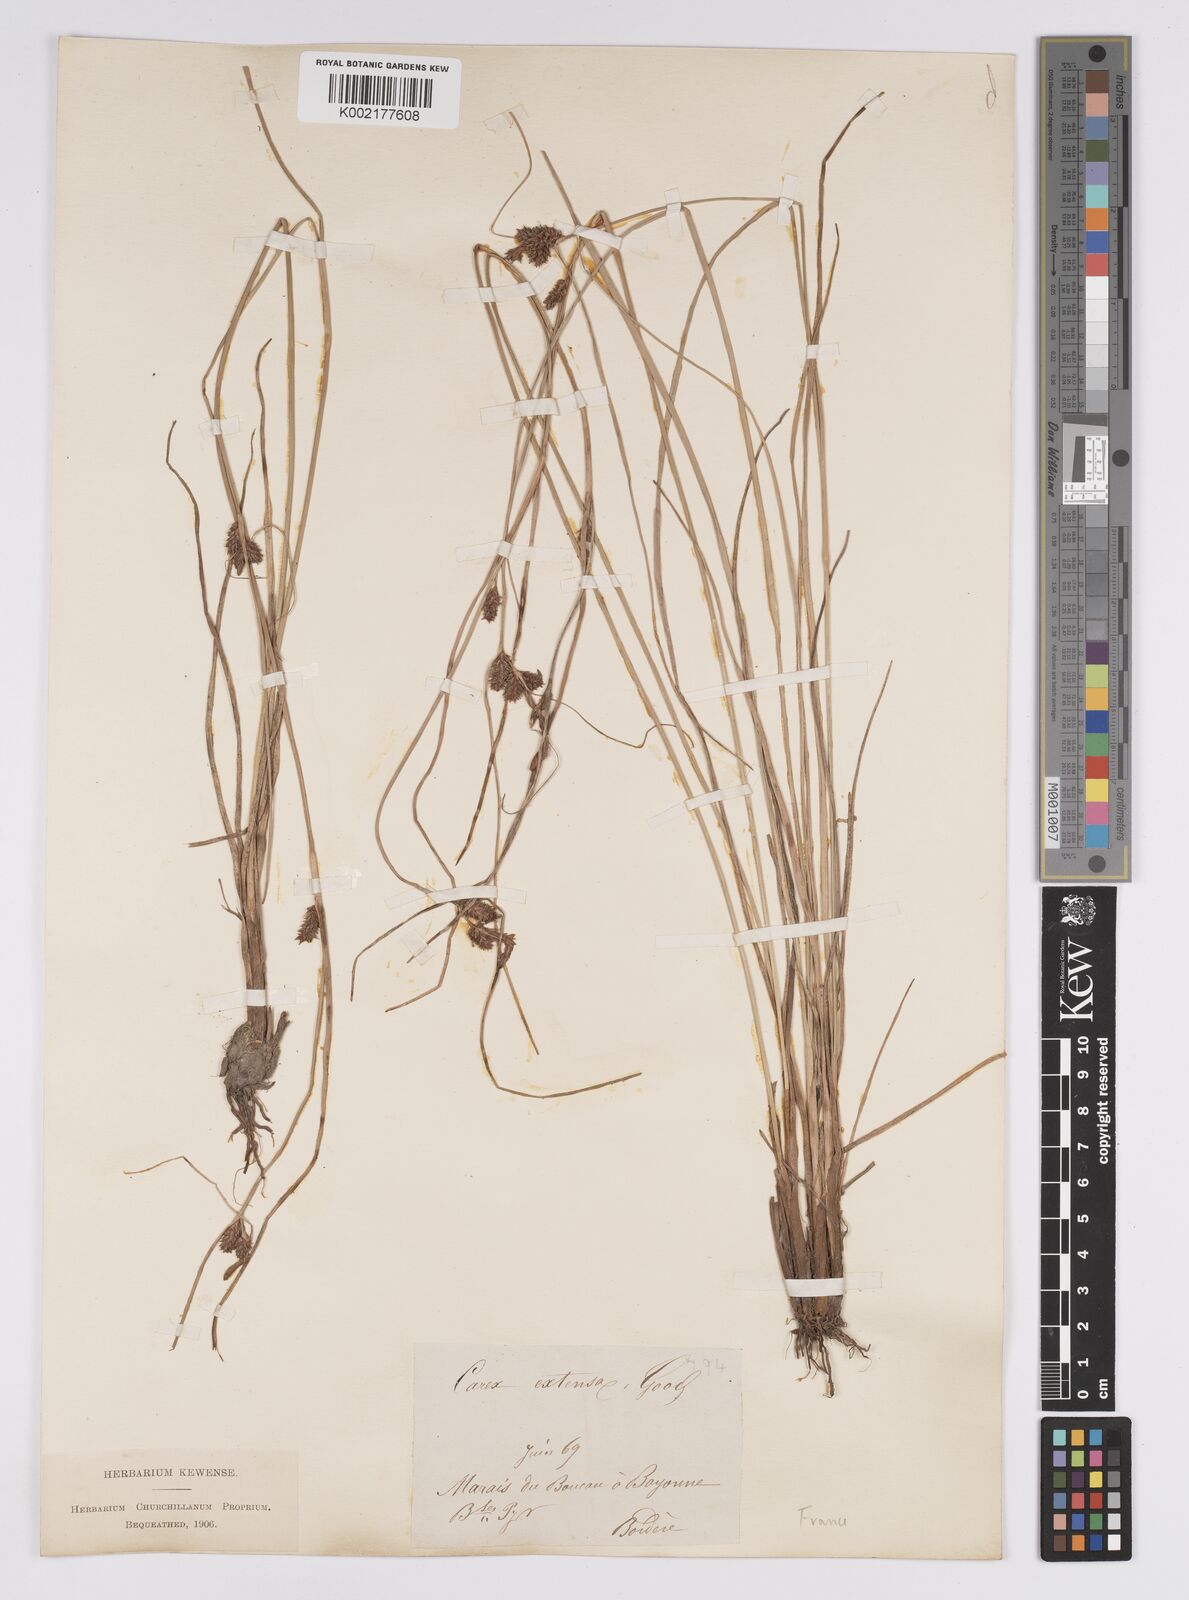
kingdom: Plantae
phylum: Tracheophyta
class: Liliopsida
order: Poales
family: Cyperaceae
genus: Carex
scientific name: Carex extensa
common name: Long-bracted sedge
